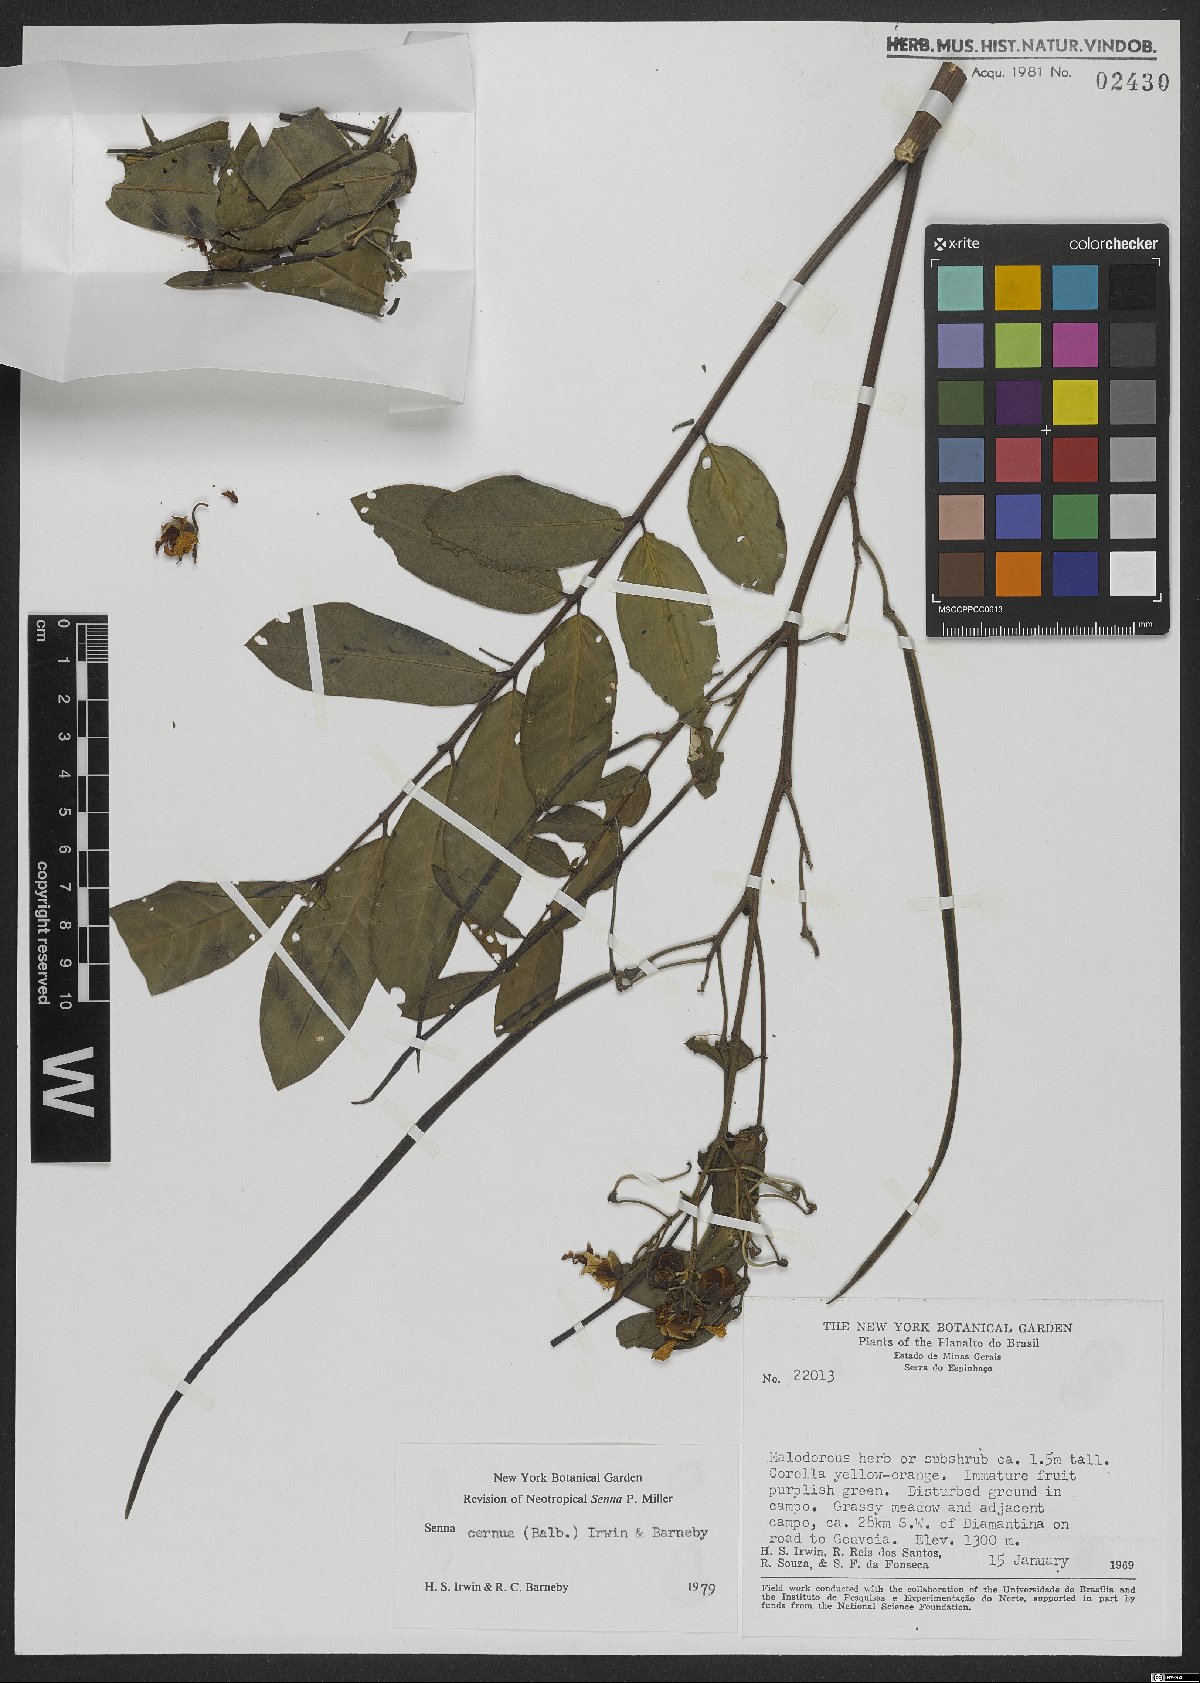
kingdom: Plantae
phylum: Tracheophyta
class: Magnoliopsida
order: Fabales
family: Fabaceae
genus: Senna
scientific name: Senna cernua
